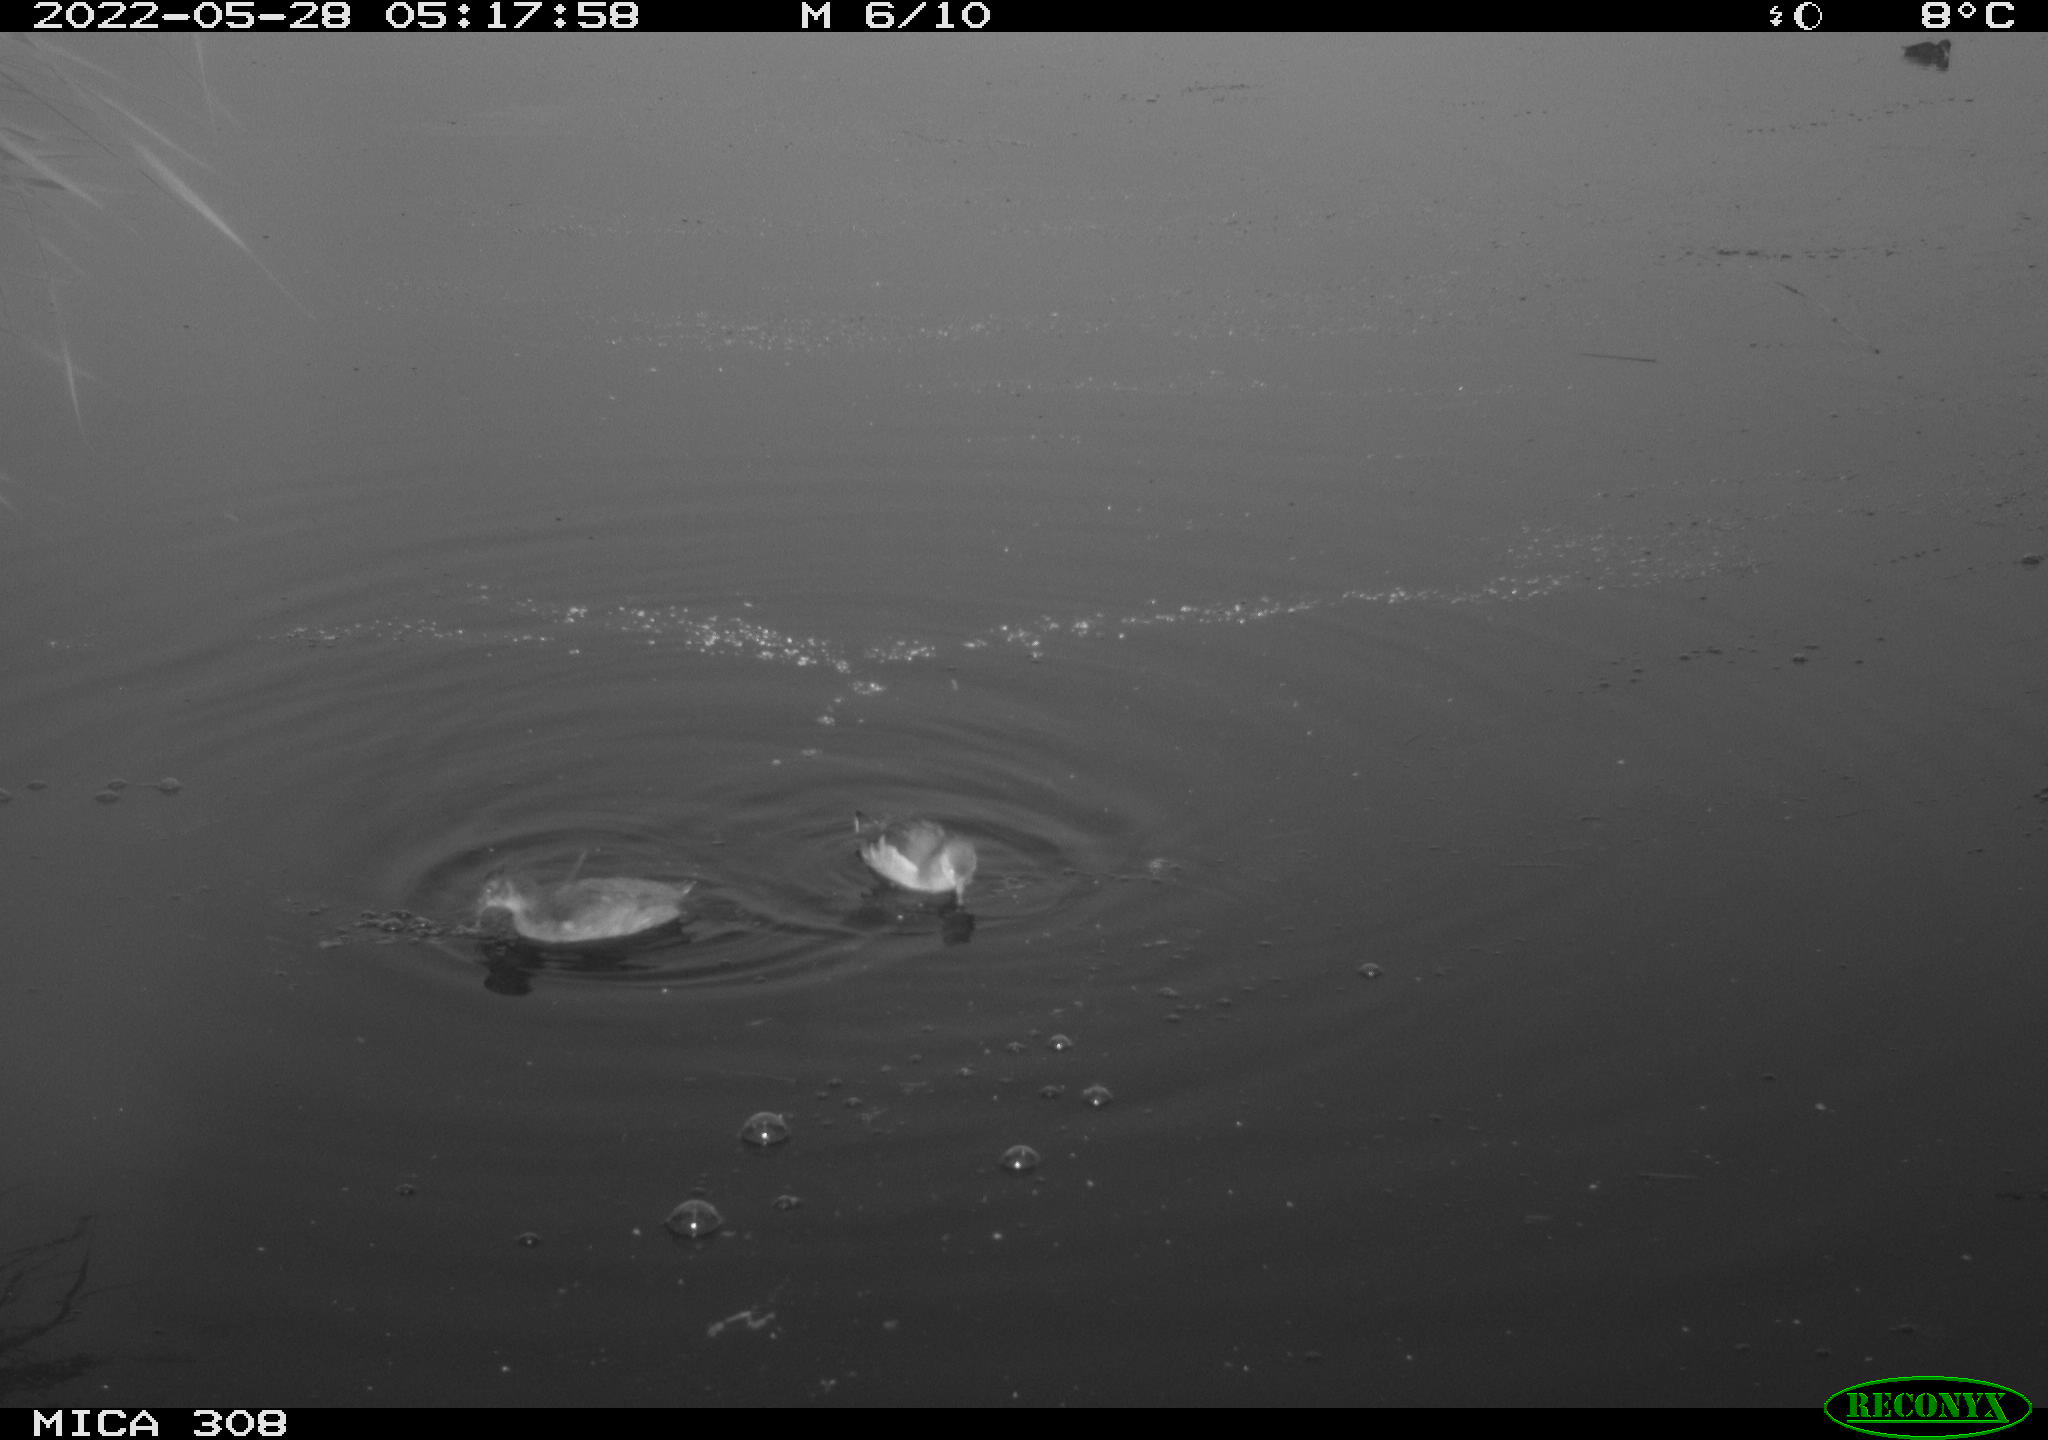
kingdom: Animalia
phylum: Chordata
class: Aves
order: Gruiformes
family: Rallidae
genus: Gallinula
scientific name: Gallinula chloropus
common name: Common moorhen
